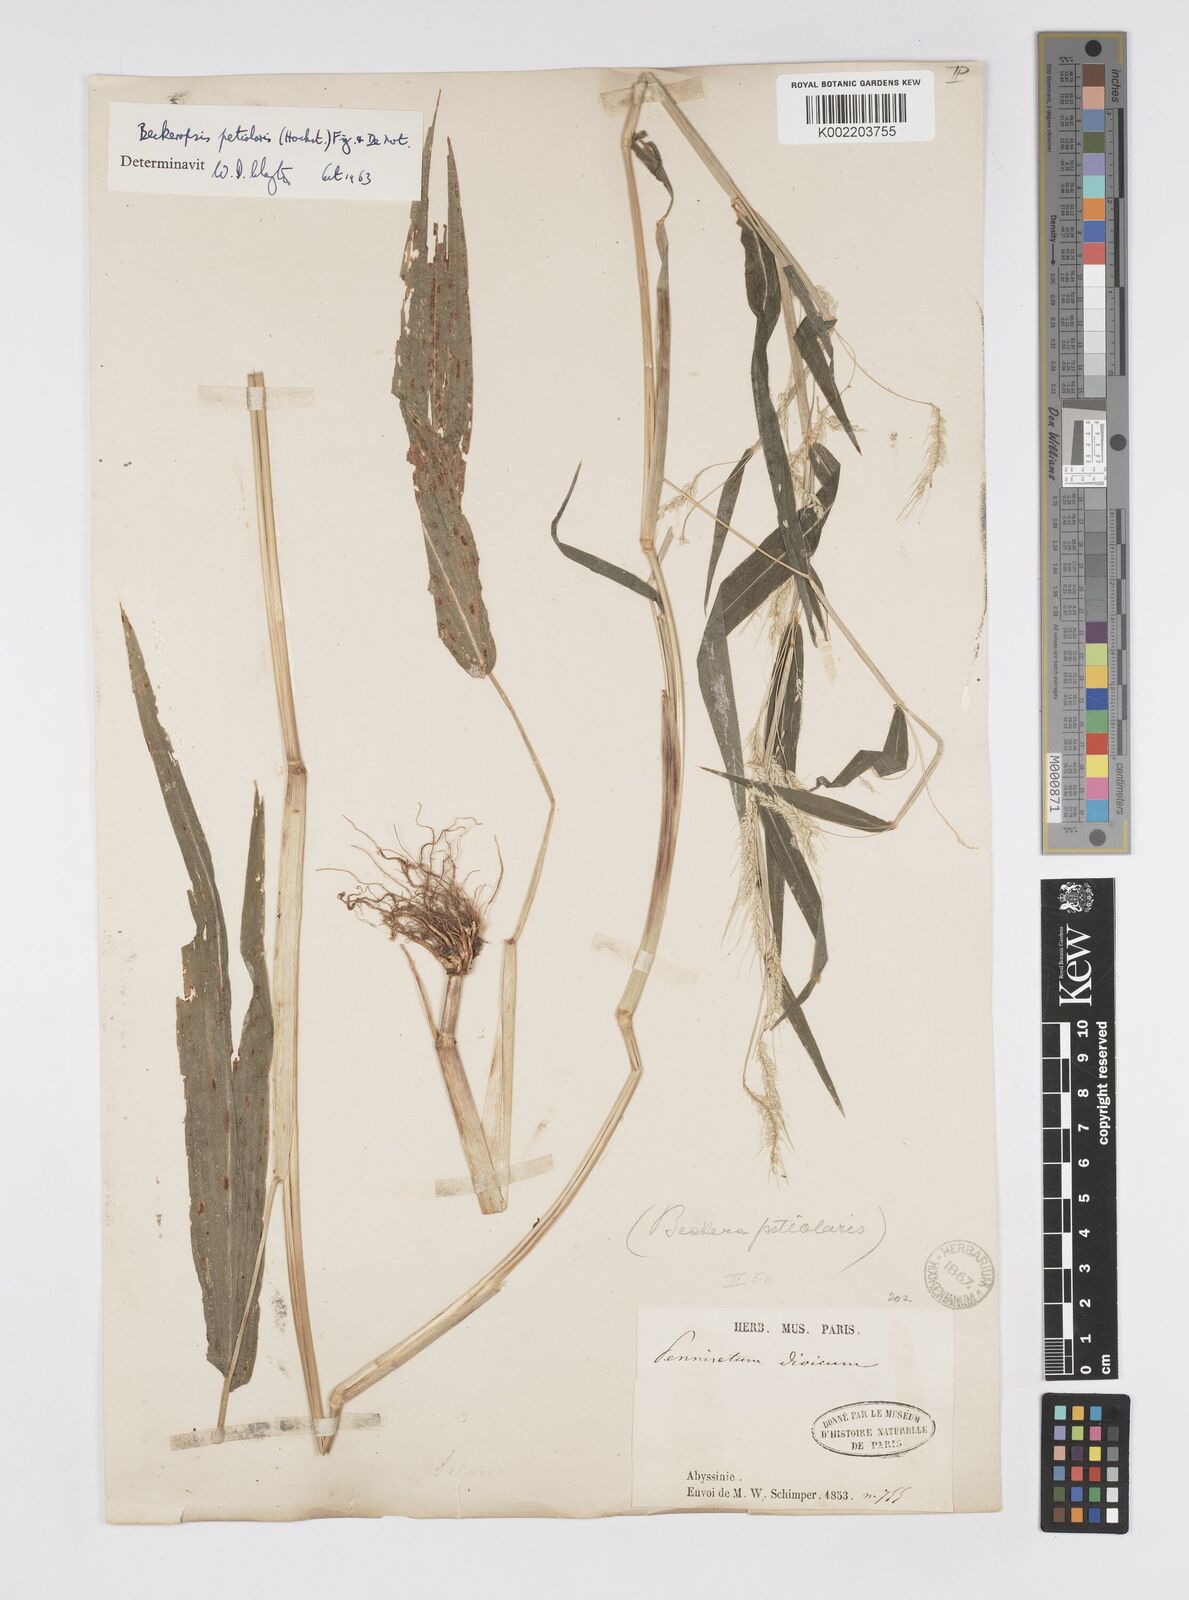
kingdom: Plantae
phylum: Tracheophyta
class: Liliopsida
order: Poales
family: Poaceae
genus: Cenchrus
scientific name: Cenchrus petiolaris
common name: Grass
